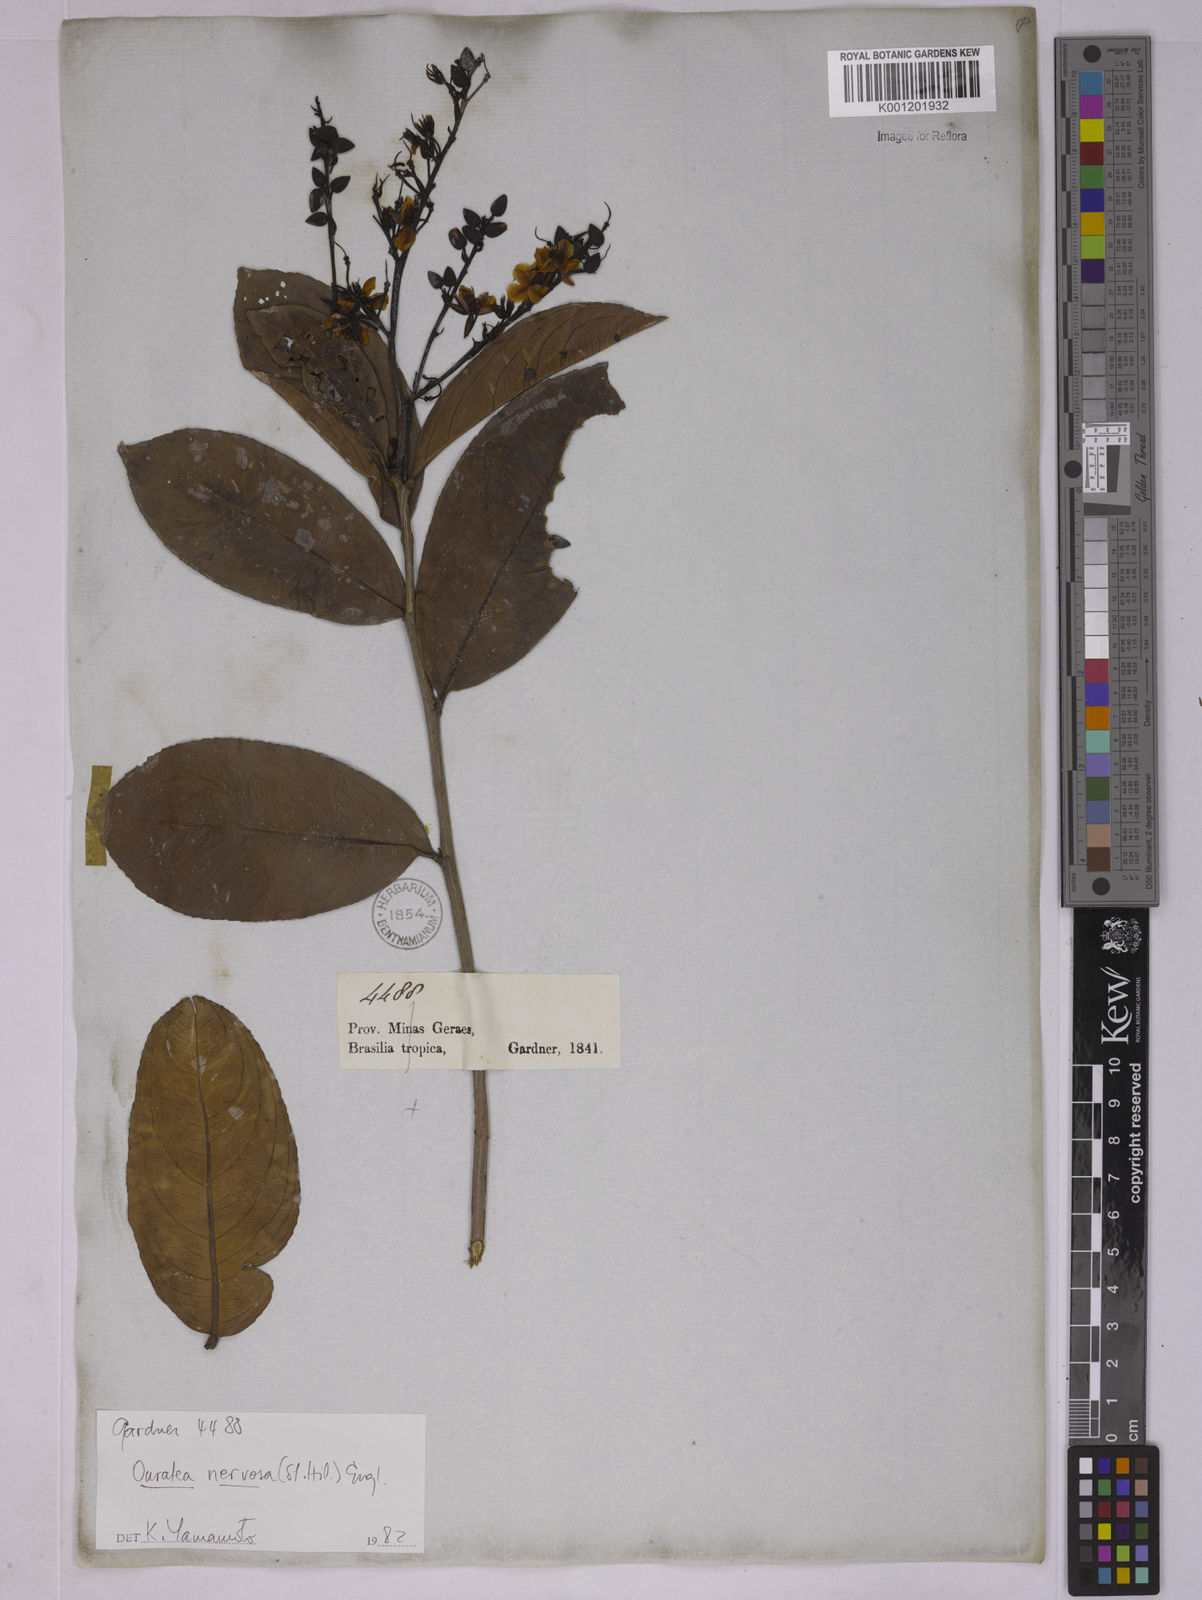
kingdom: Plantae
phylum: Tracheophyta
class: Magnoliopsida
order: Malpighiales
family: Ochnaceae
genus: Ouratea
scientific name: Ouratea nervosa
